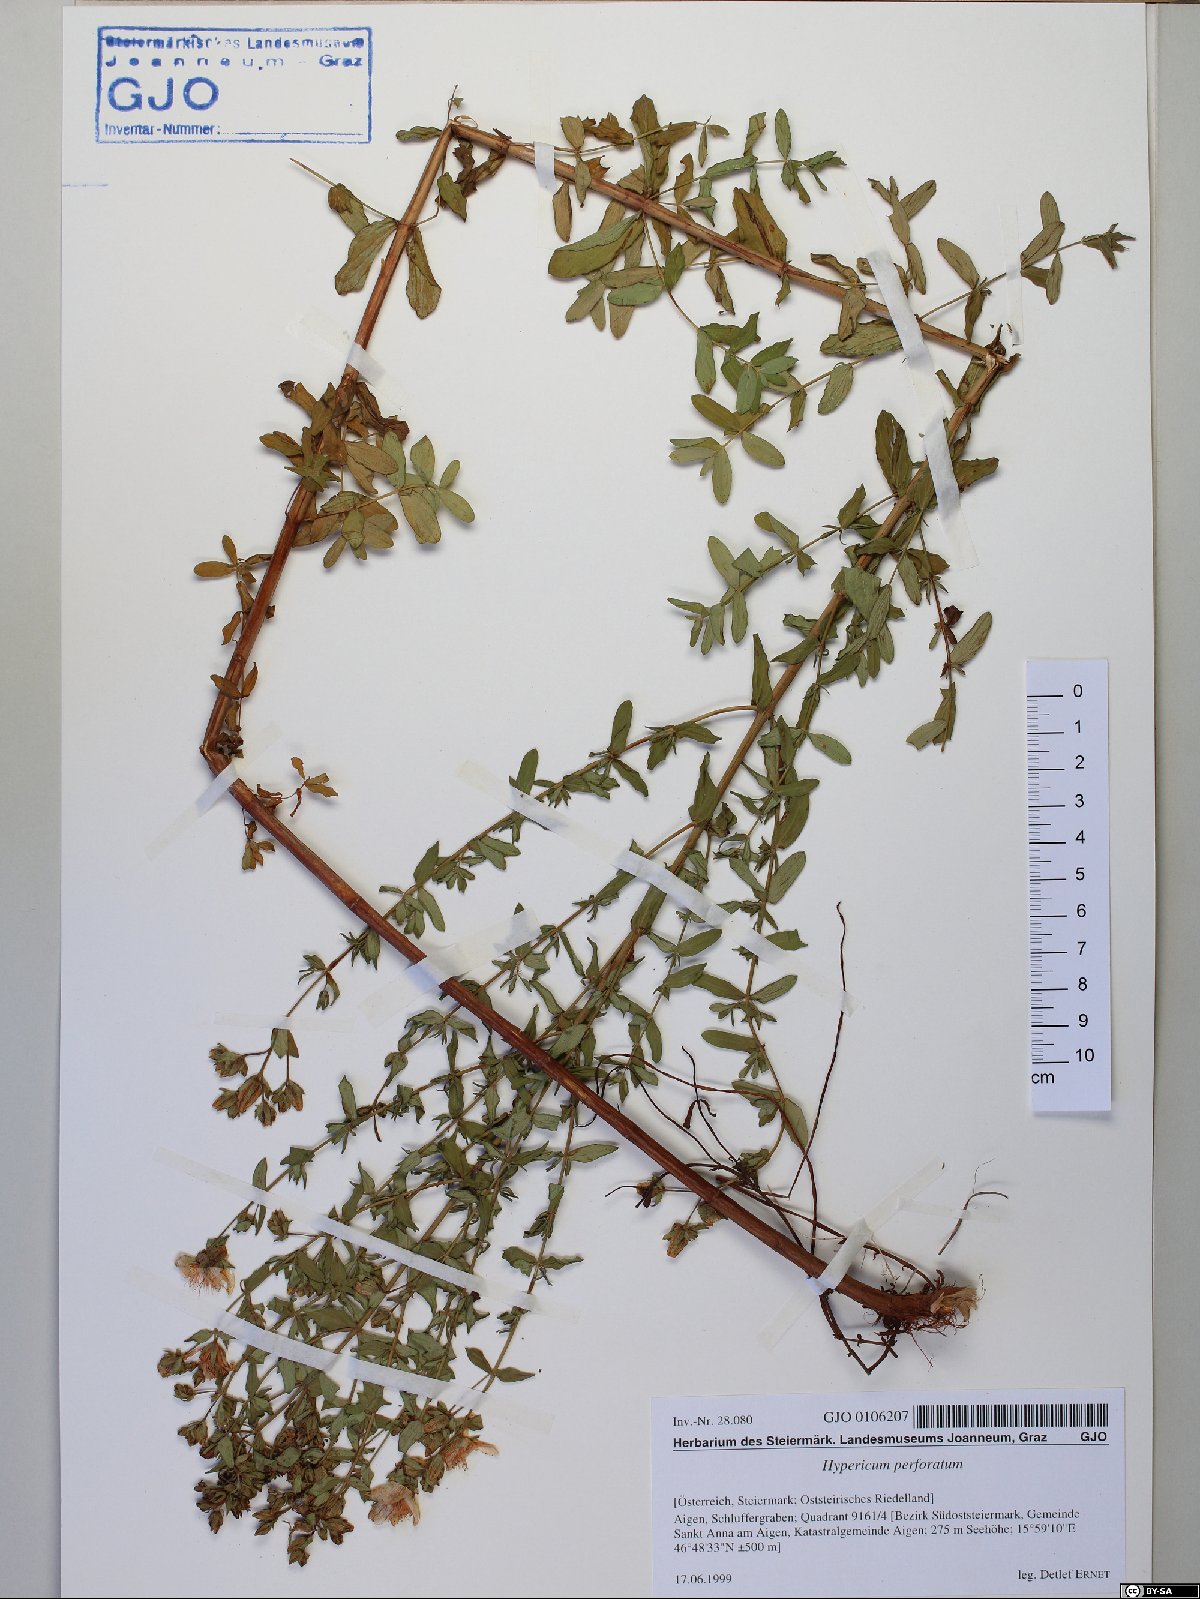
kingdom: Plantae
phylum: Tracheophyta
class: Magnoliopsida
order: Malpighiales
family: Hypericaceae
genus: Hypericum
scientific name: Hypericum perforatum
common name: Common st. johnswort
